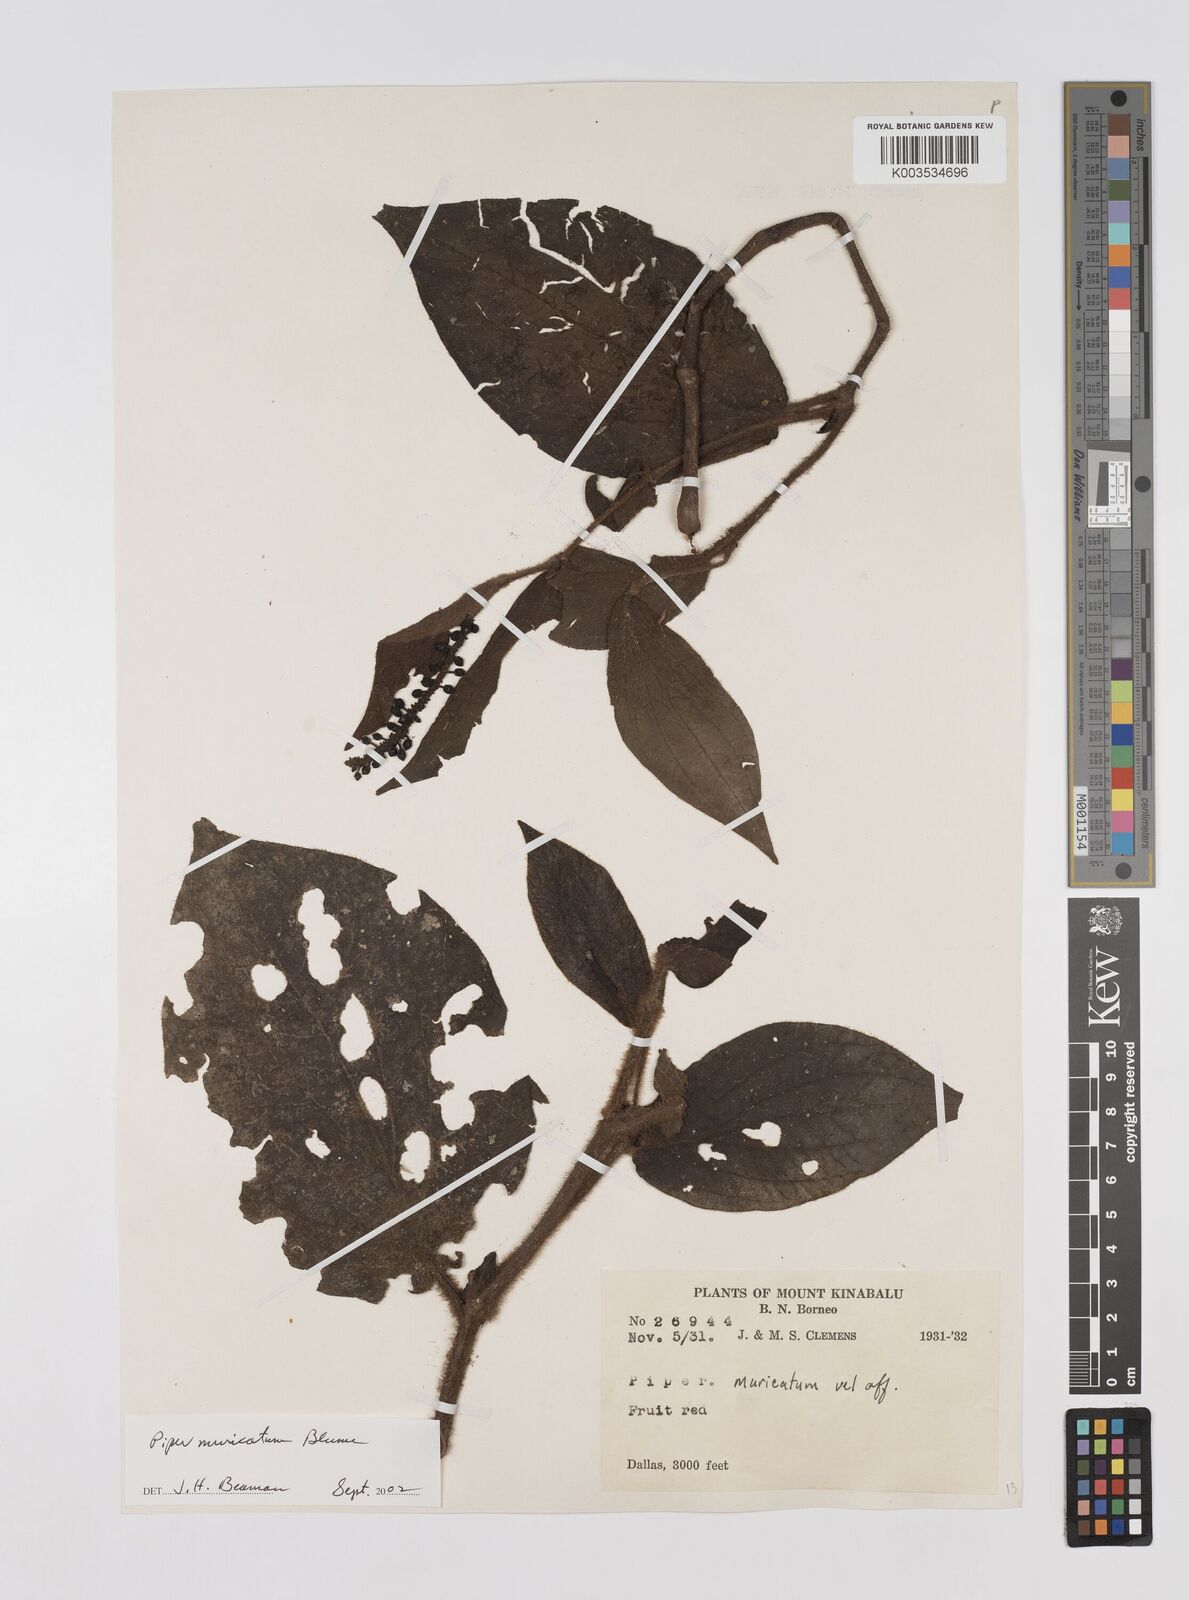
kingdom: Plantae
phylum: Tracheophyta
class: Magnoliopsida
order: Piperales
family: Piperaceae
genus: Piper
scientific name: Piper muricatum
